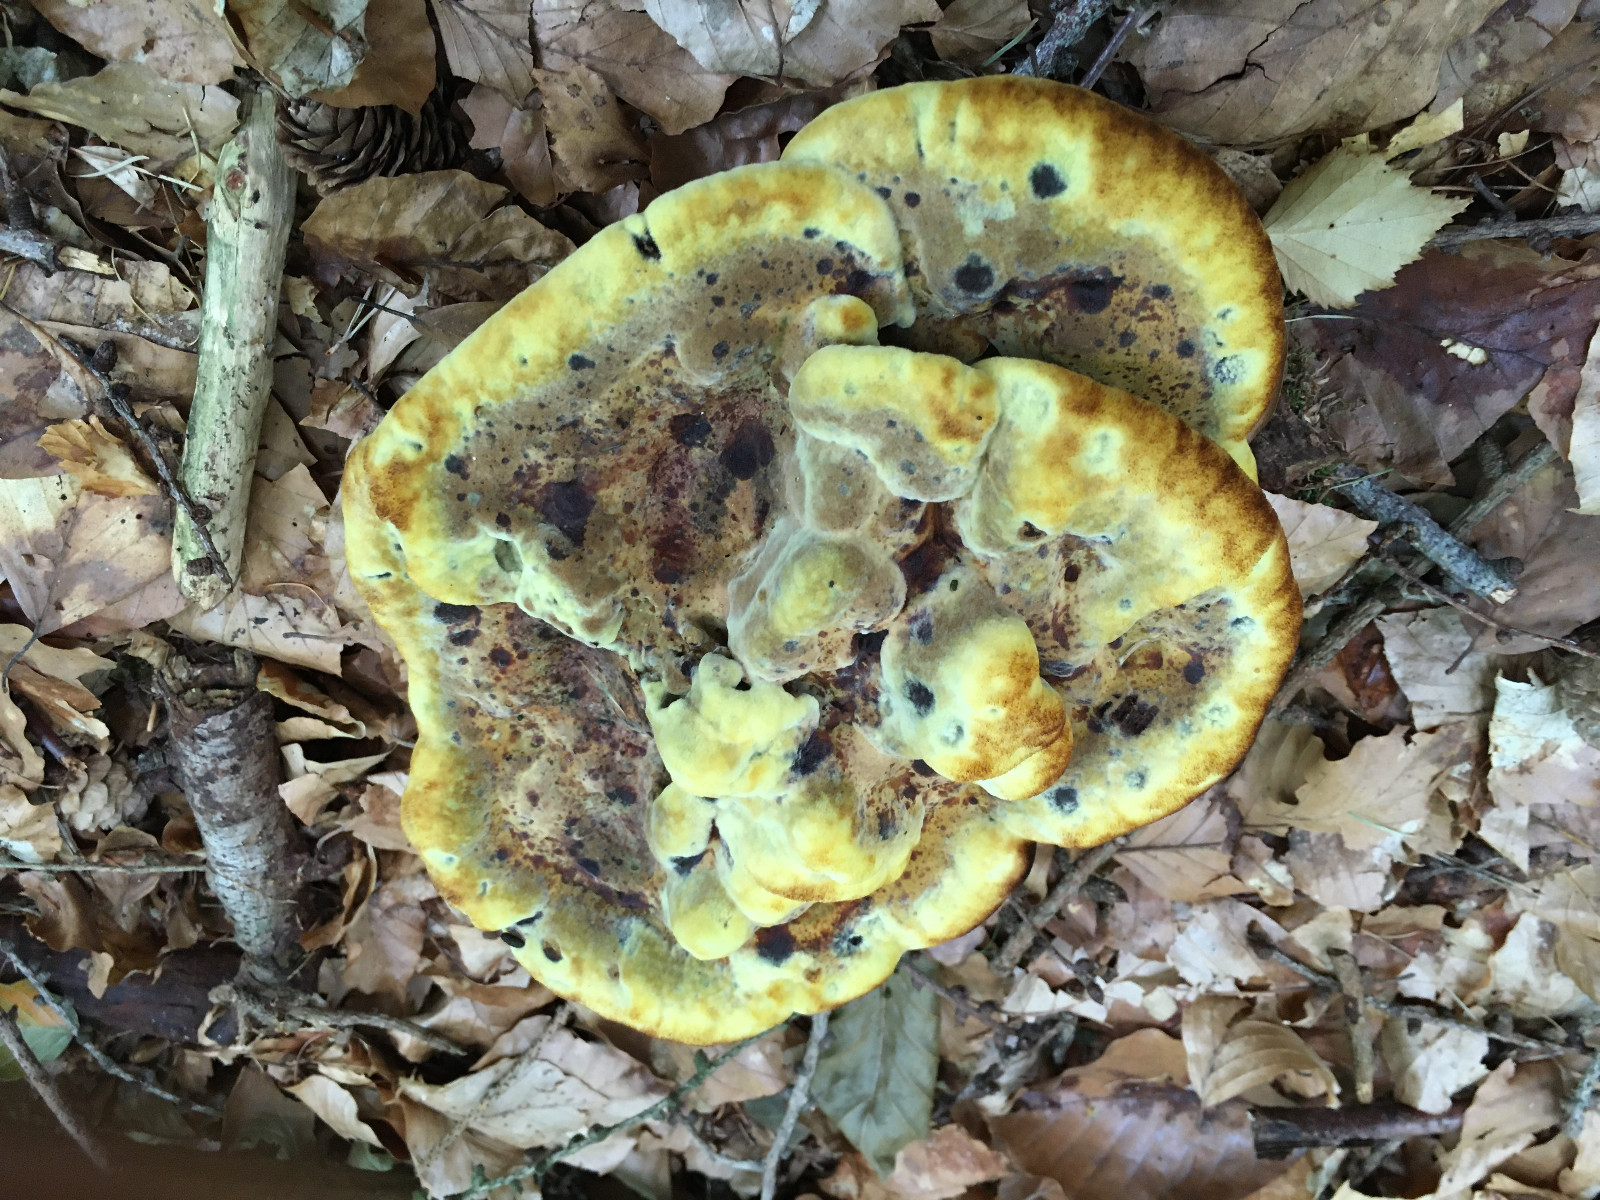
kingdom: Fungi
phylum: Basidiomycota
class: Agaricomycetes
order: Polyporales
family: Laetiporaceae
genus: Phaeolus
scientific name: Phaeolus schweinitzii
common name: brunporesvamp
